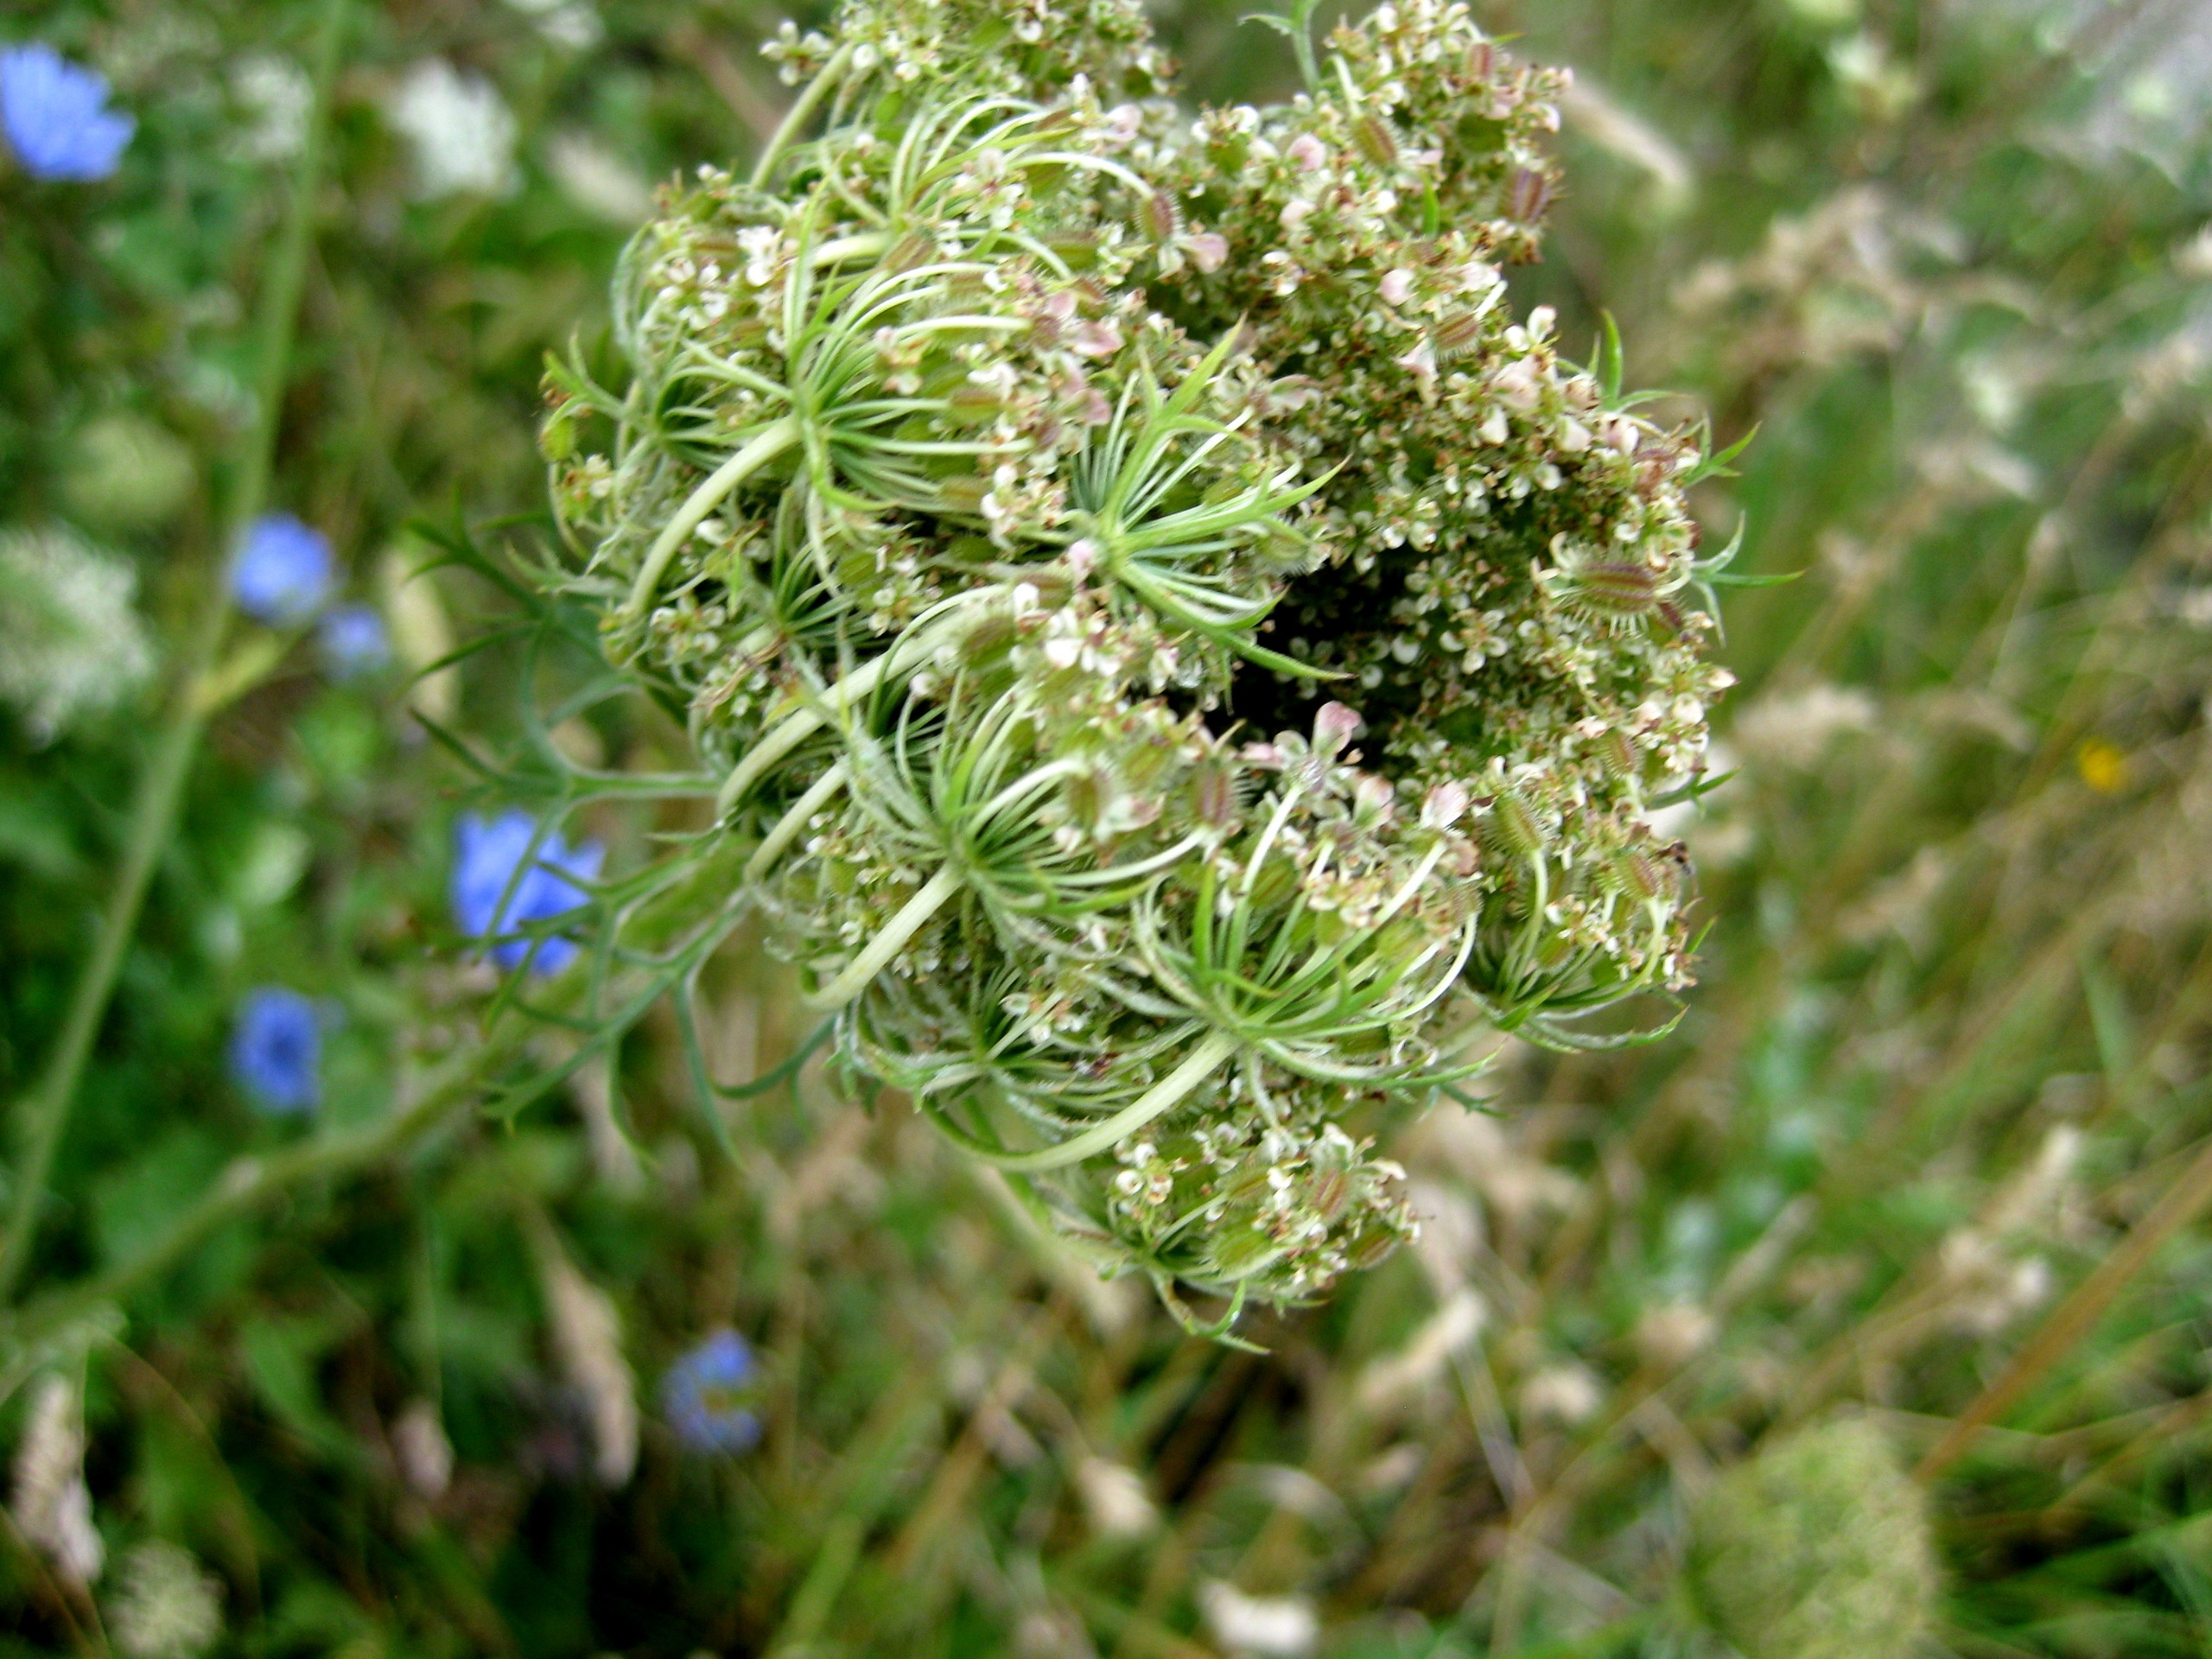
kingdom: Plantae
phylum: Tracheophyta
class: Magnoliopsida
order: Apiales
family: Apiaceae
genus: Daucus
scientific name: Daucus carota
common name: Gulerod
